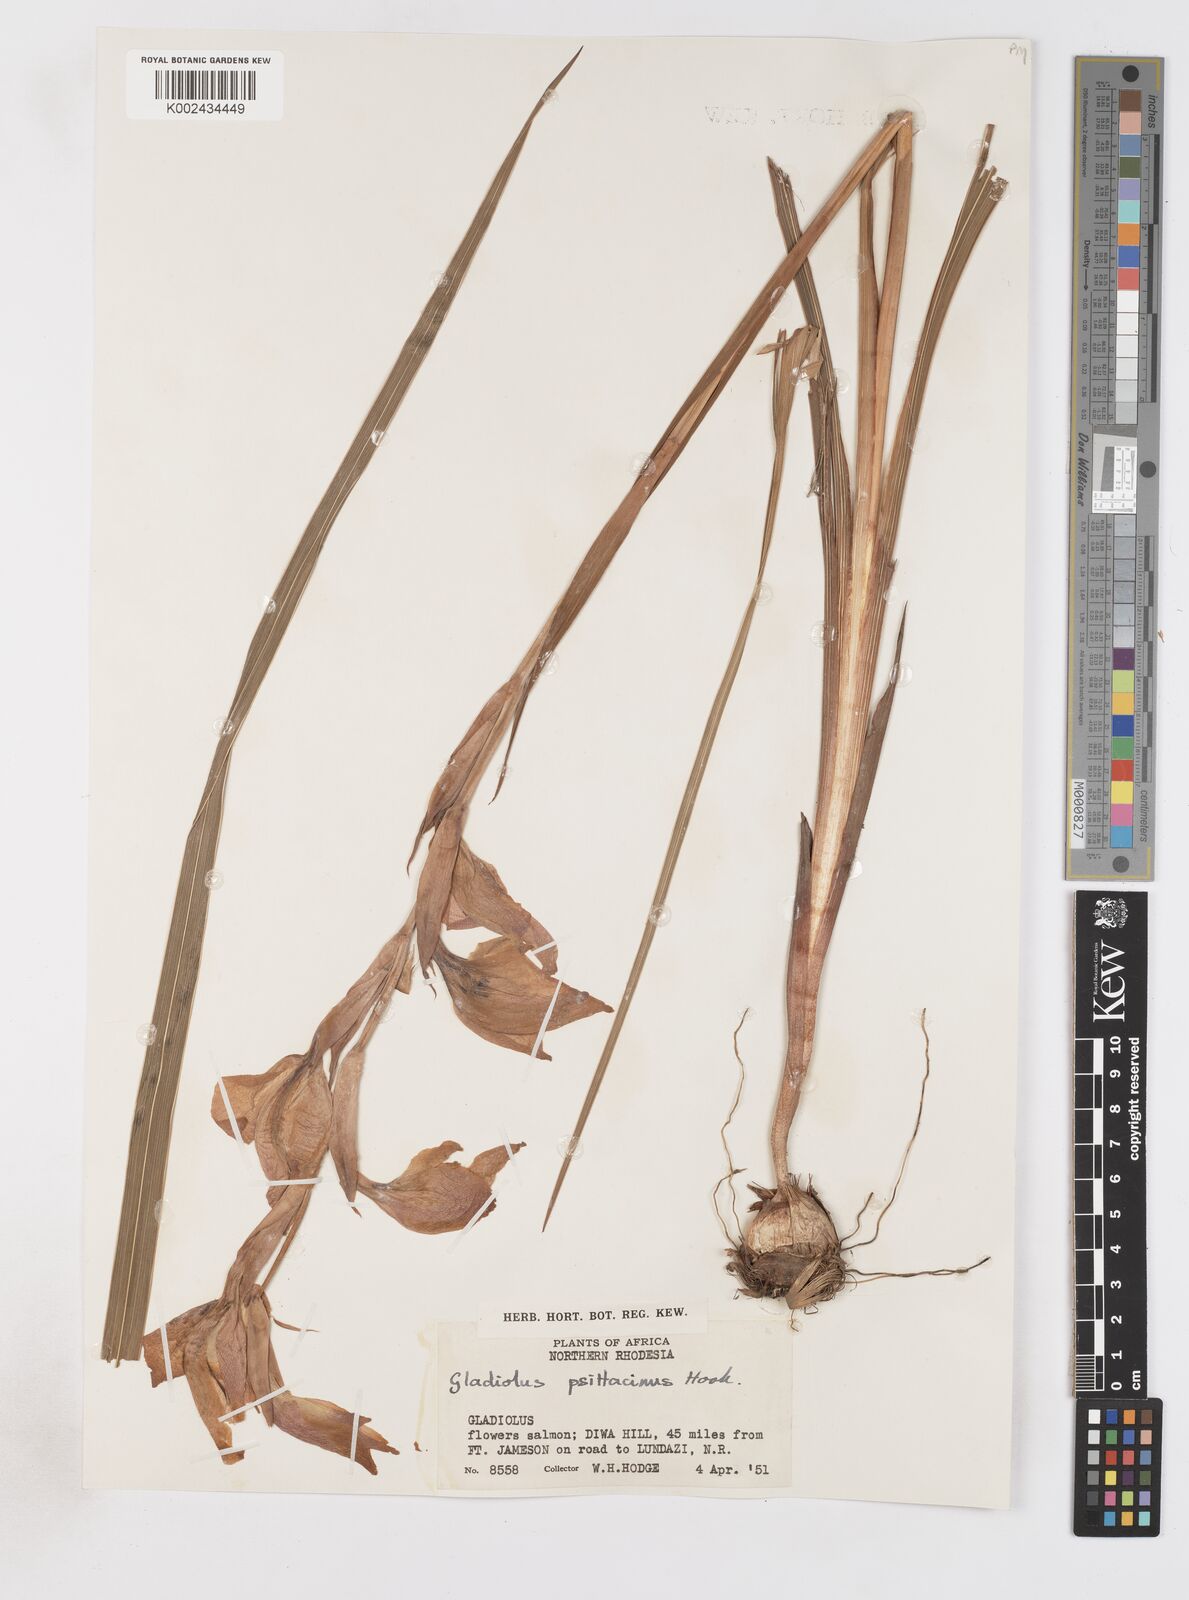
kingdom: Plantae
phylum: Tracheophyta
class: Liliopsida
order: Asparagales
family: Iridaceae
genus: Gladiolus
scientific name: Gladiolus dalenii
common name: Cornflag
